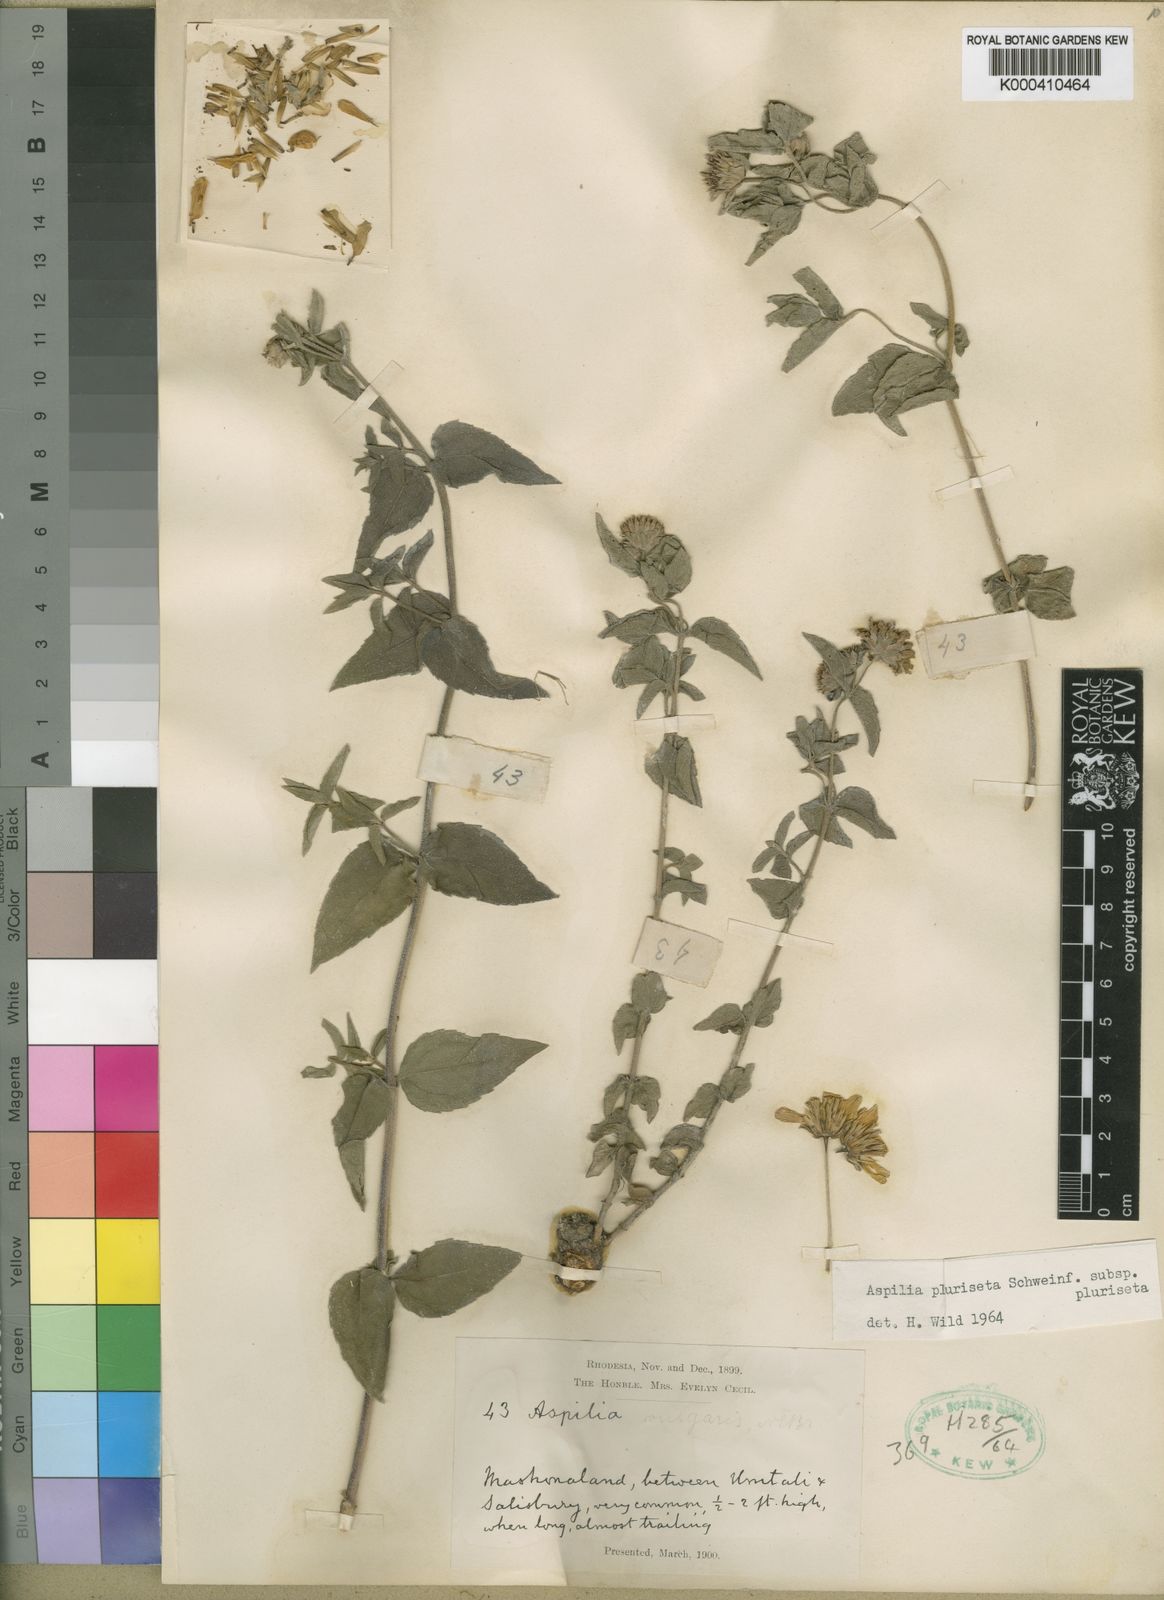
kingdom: Plantae
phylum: Tracheophyta
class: Magnoliopsida
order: Asterales
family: Asteraceae
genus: Aspilia
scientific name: Aspilia pluriseta
